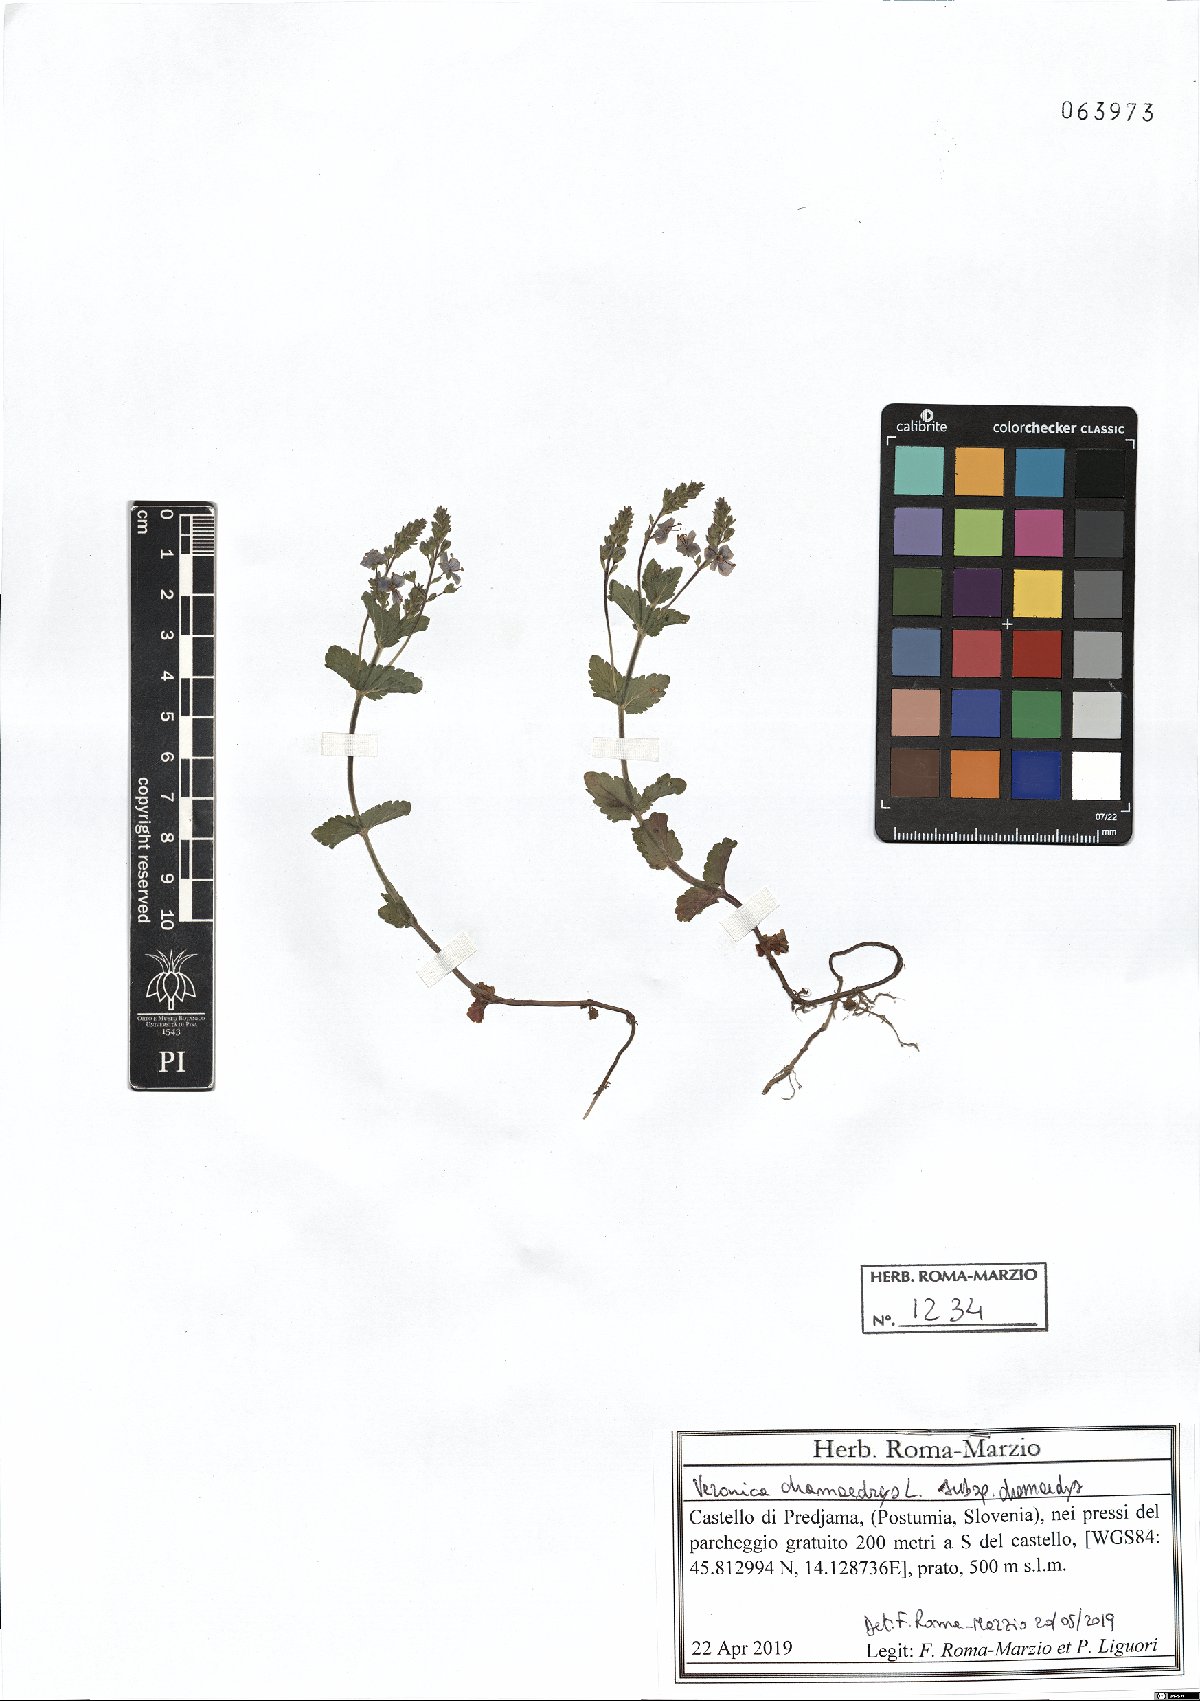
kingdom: Plantae
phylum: Tracheophyta
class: Magnoliopsida
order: Lamiales
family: Plantaginaceae
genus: Veronica
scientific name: Veronica chamaedrys
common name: Germander speedwell
